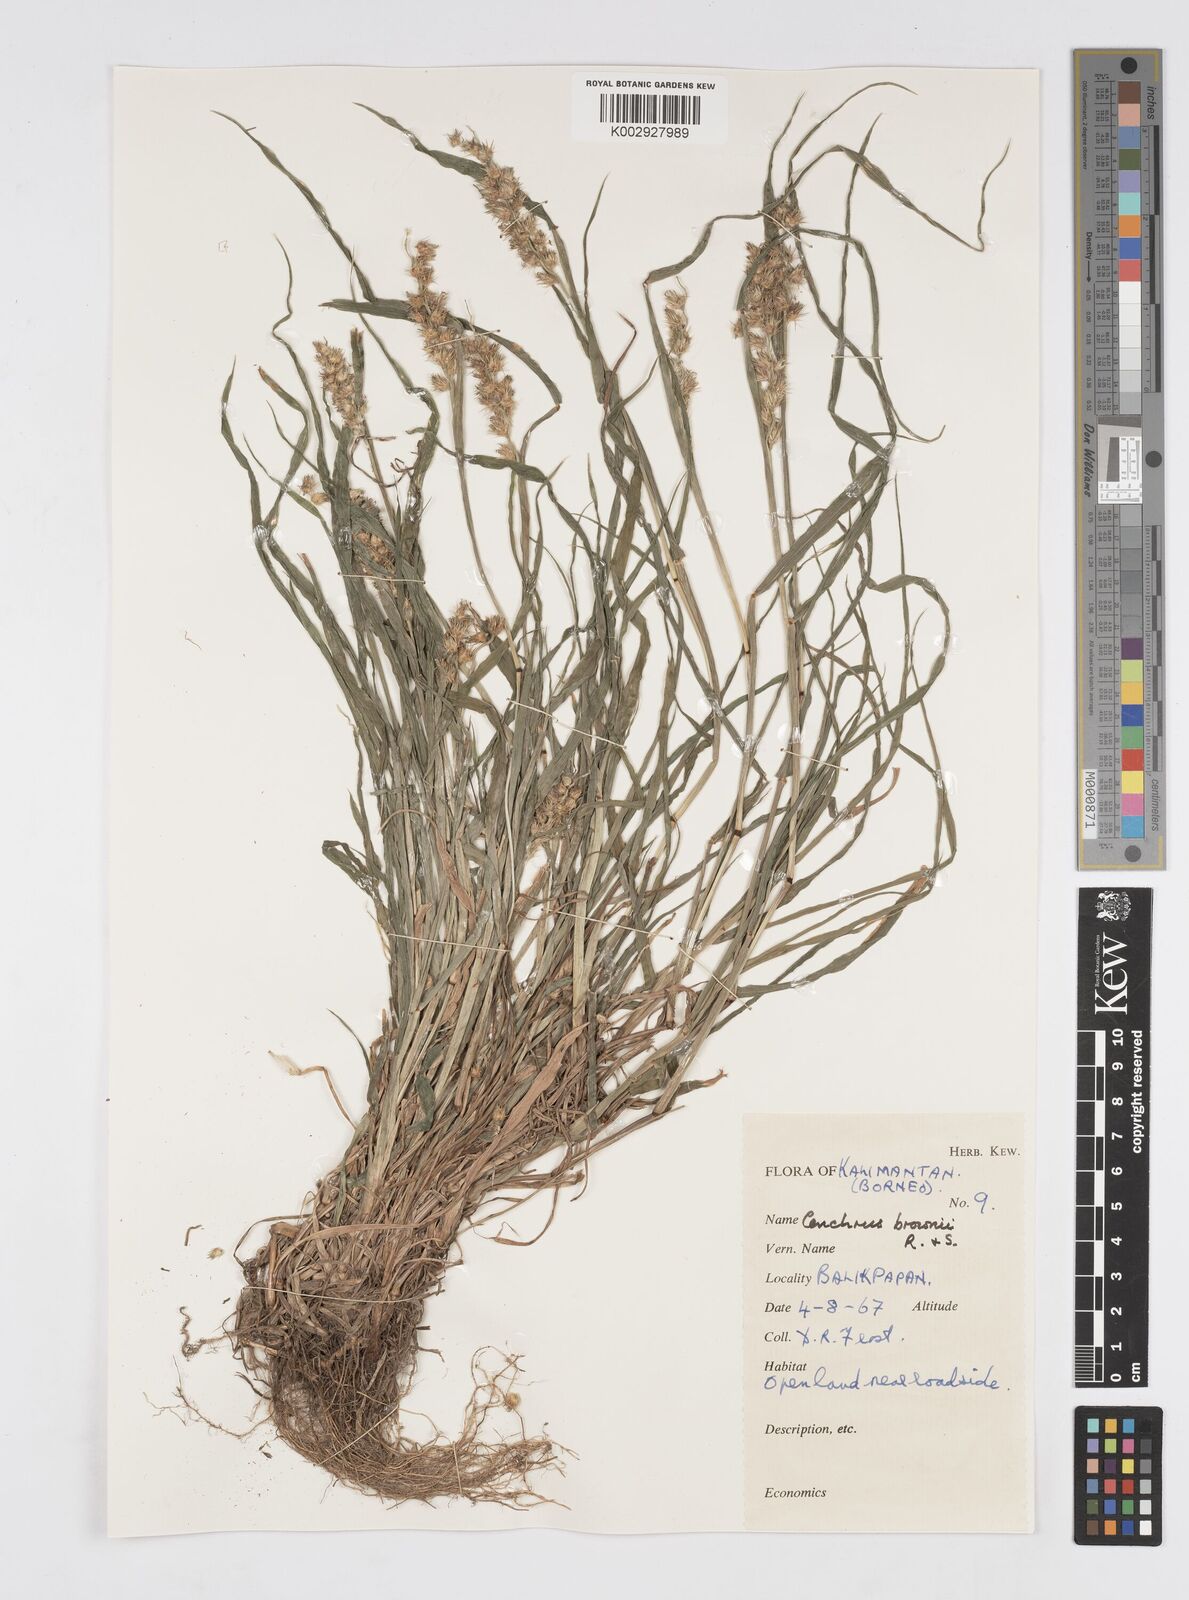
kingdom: Plantae
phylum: Tracheophyta
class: Liliopsida
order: Poales
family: Poaceae
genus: Cenchrus
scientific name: Cenchrus echinatus
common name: Southern sandbur
